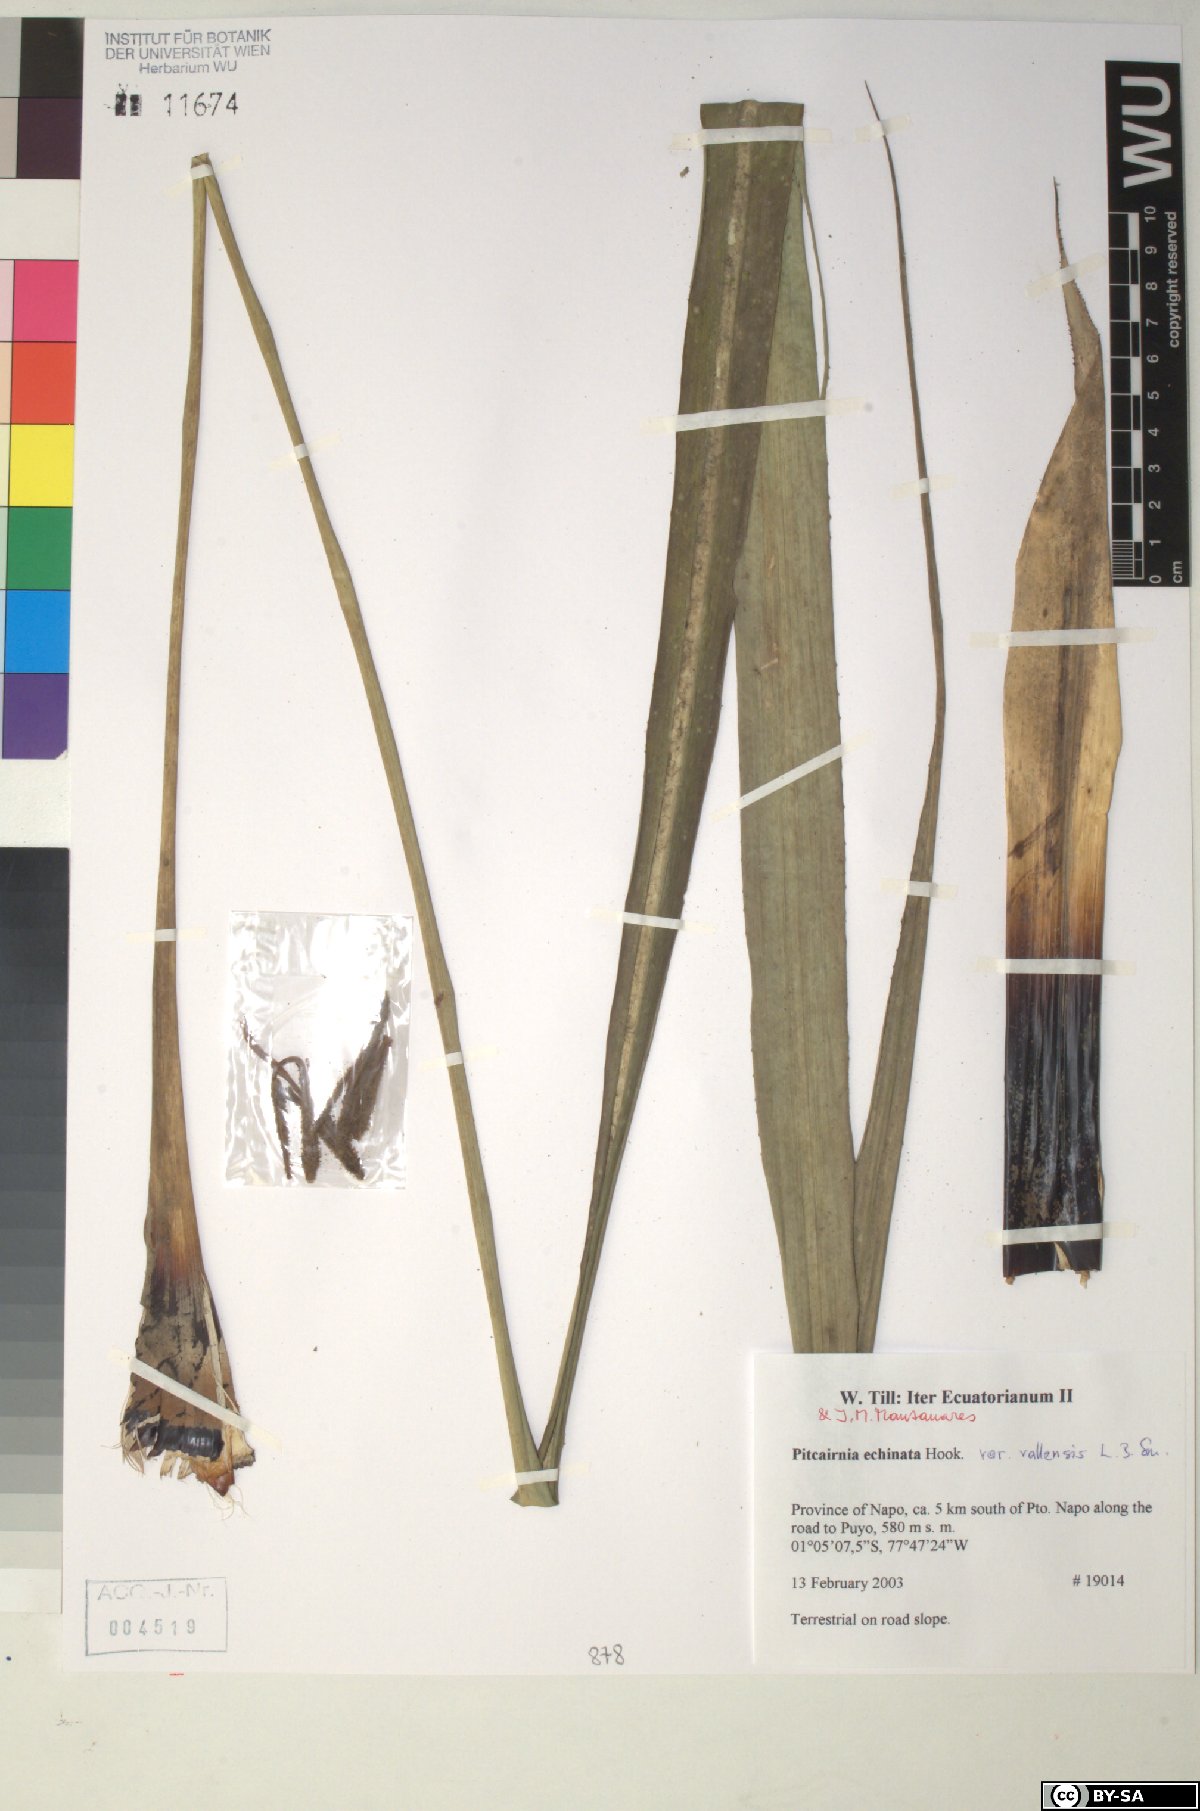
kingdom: Plantae
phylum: Tracheophyta
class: Liliopsida
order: Poales
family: Bromeliaceae
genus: Pitcairnia
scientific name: Pitcairnia echinata
